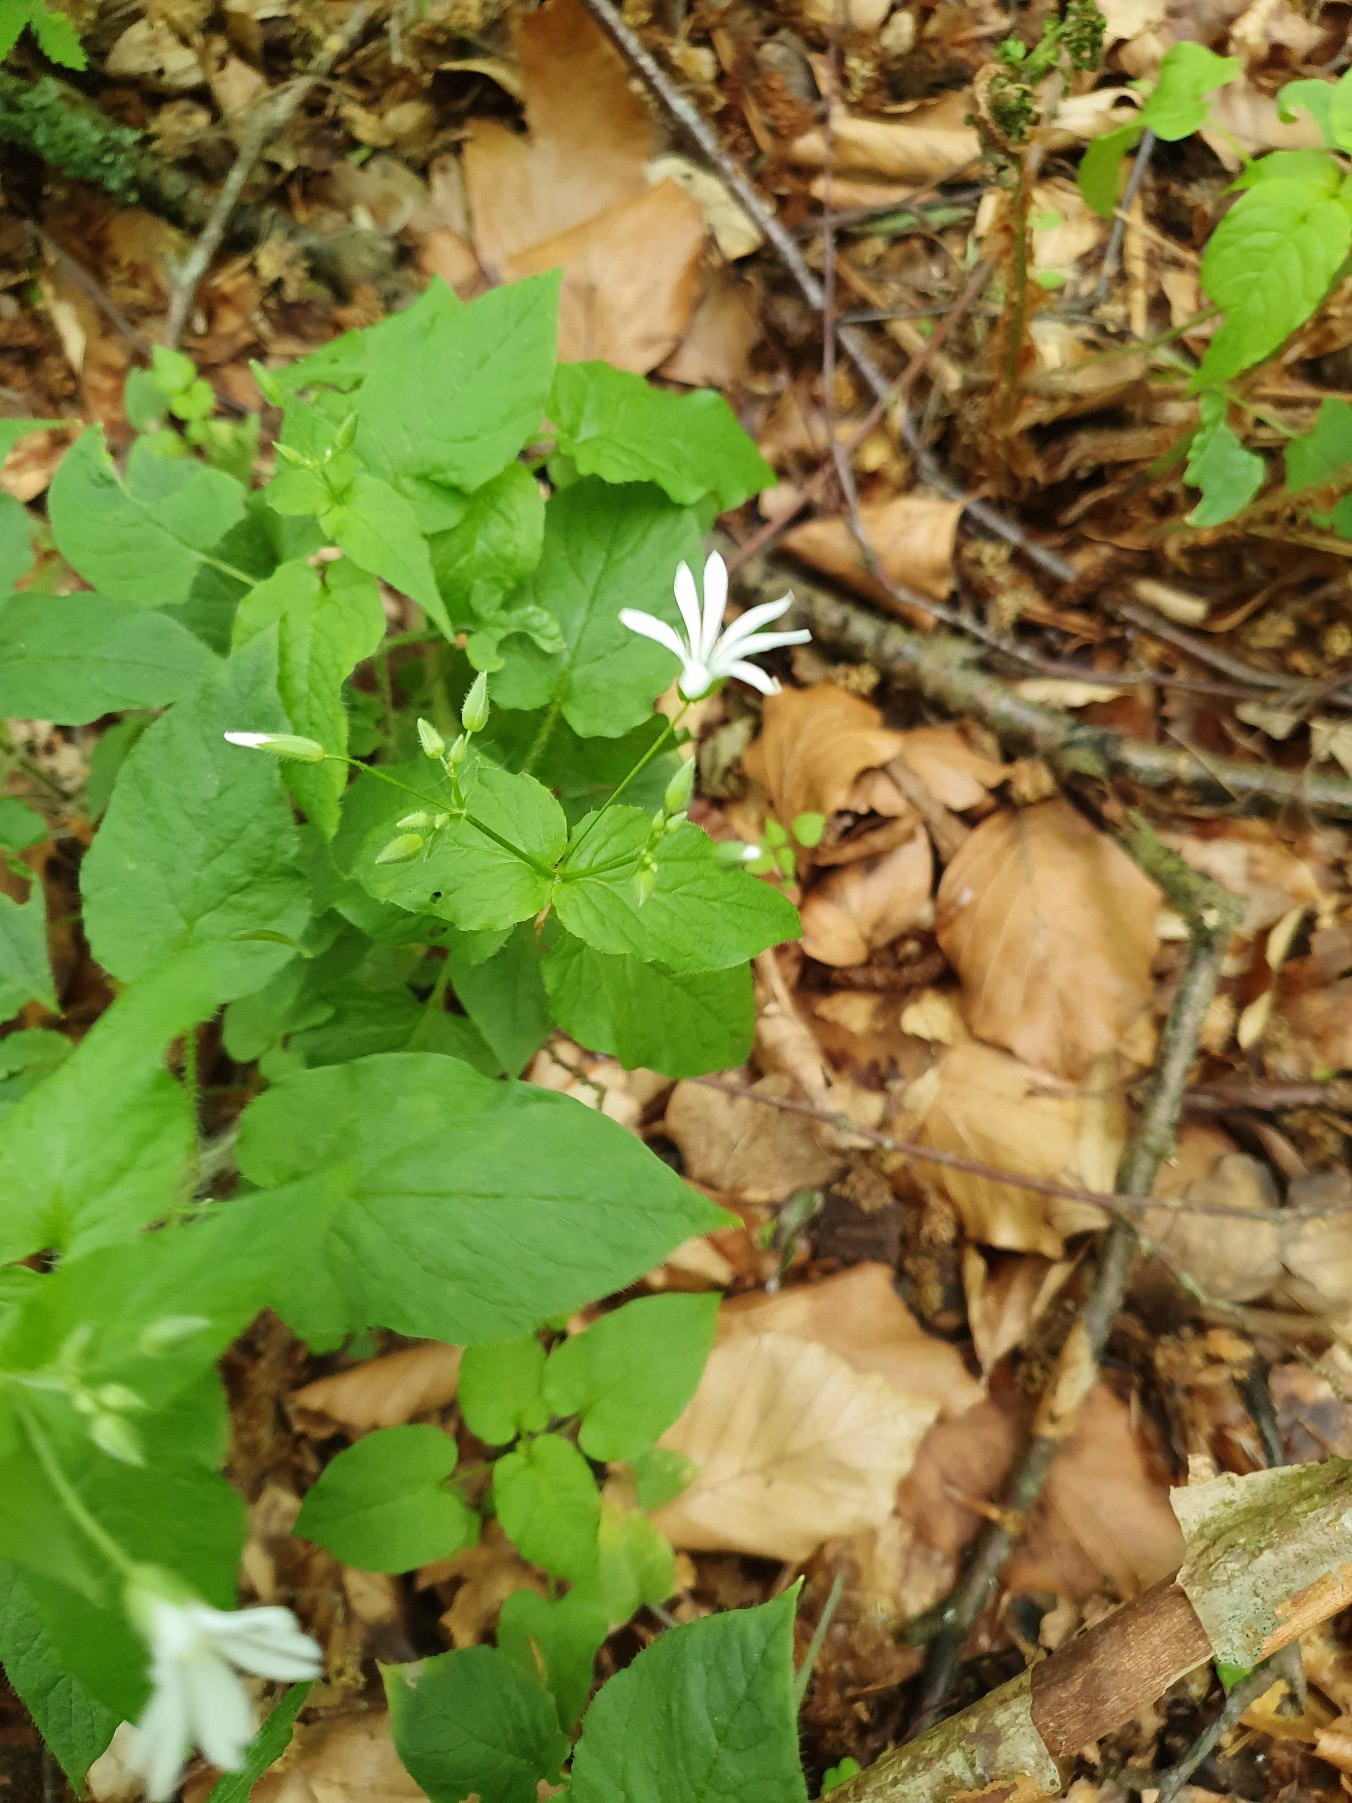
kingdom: Plantae
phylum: Tracheophyta
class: Magnoliopsida
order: Caryophyllales
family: Caryophyllaceae
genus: Stellaria
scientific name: Stellaria glochidisperma
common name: Sydlig lund-fladstjerne
